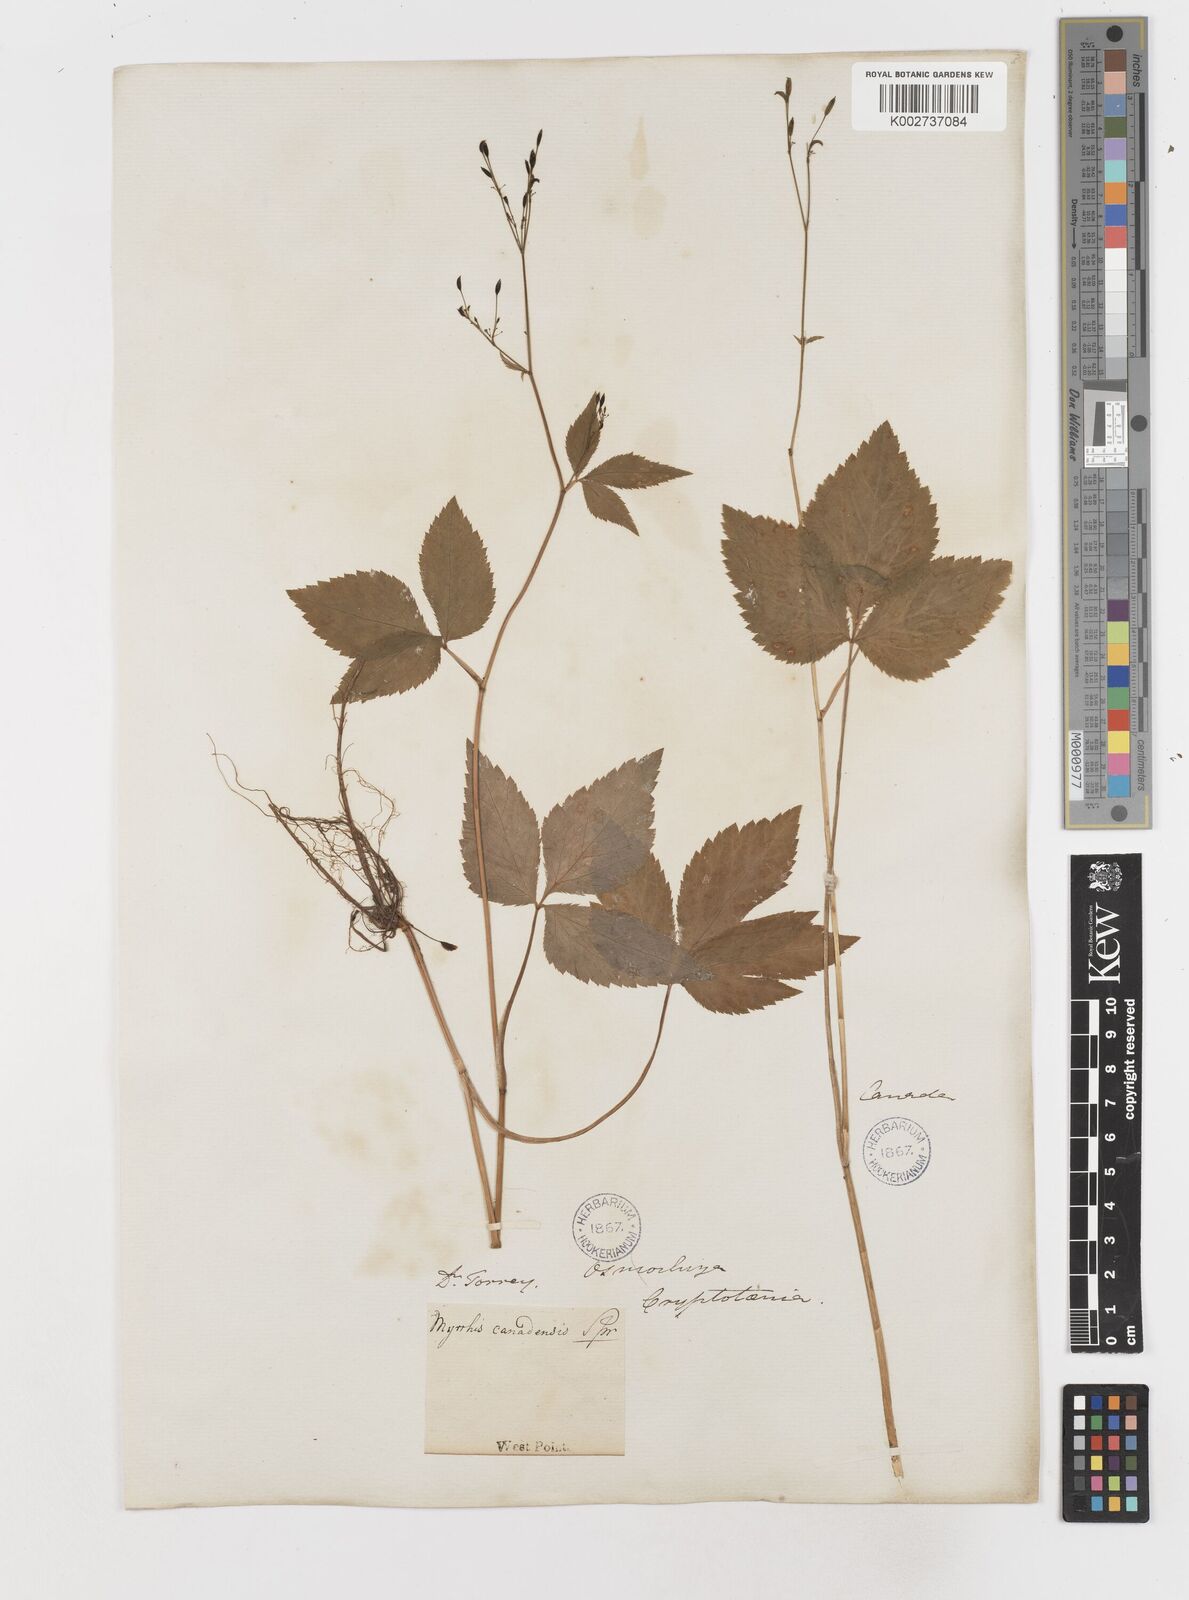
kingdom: Plantae
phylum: Tracheophyta
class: Magnoliopsida
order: Apiales
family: Apiaceae
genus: Cryptotaenia
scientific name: Cryptotaenia canadensis
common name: Honewort
